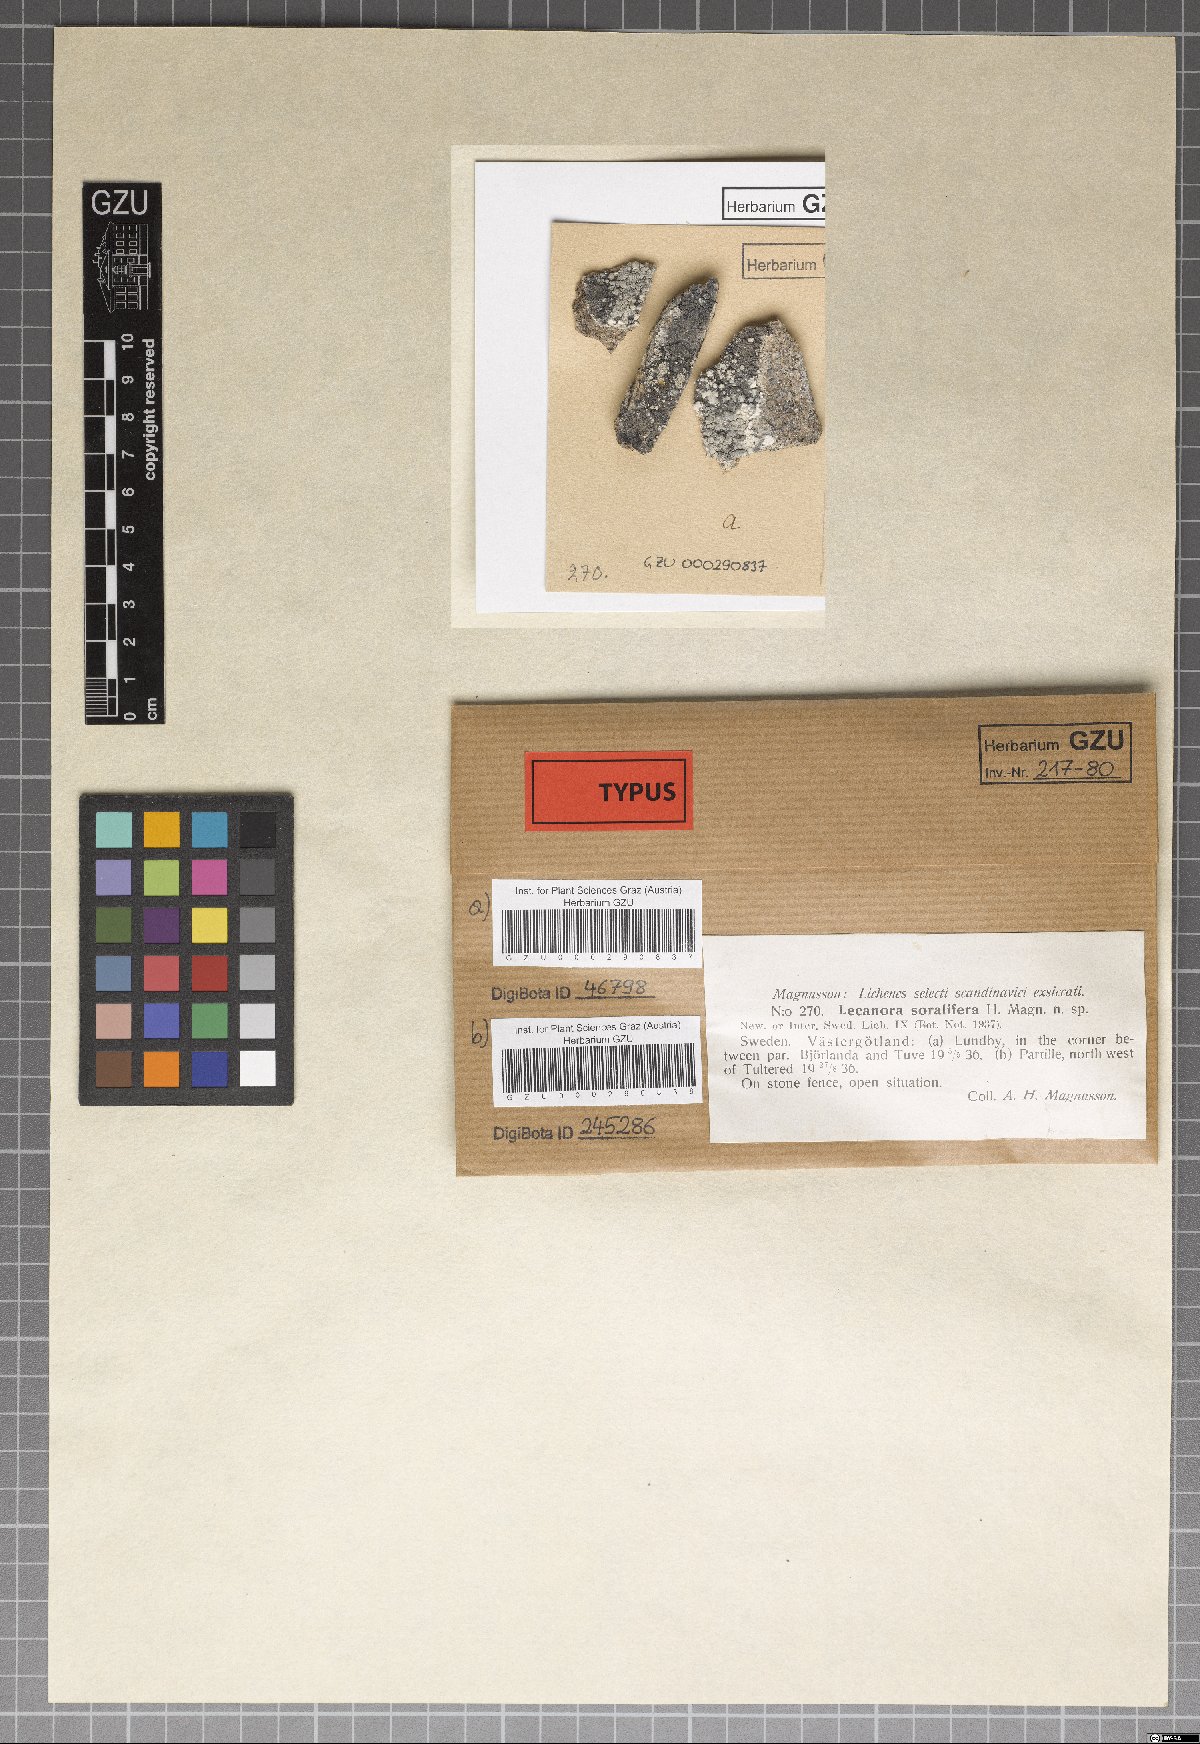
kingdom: Fungi
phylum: Ascomycota
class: Lecanoromycetes
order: Lecanorales
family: Lecanoraceae
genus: Lecanora
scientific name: Lecanora caesiosora
